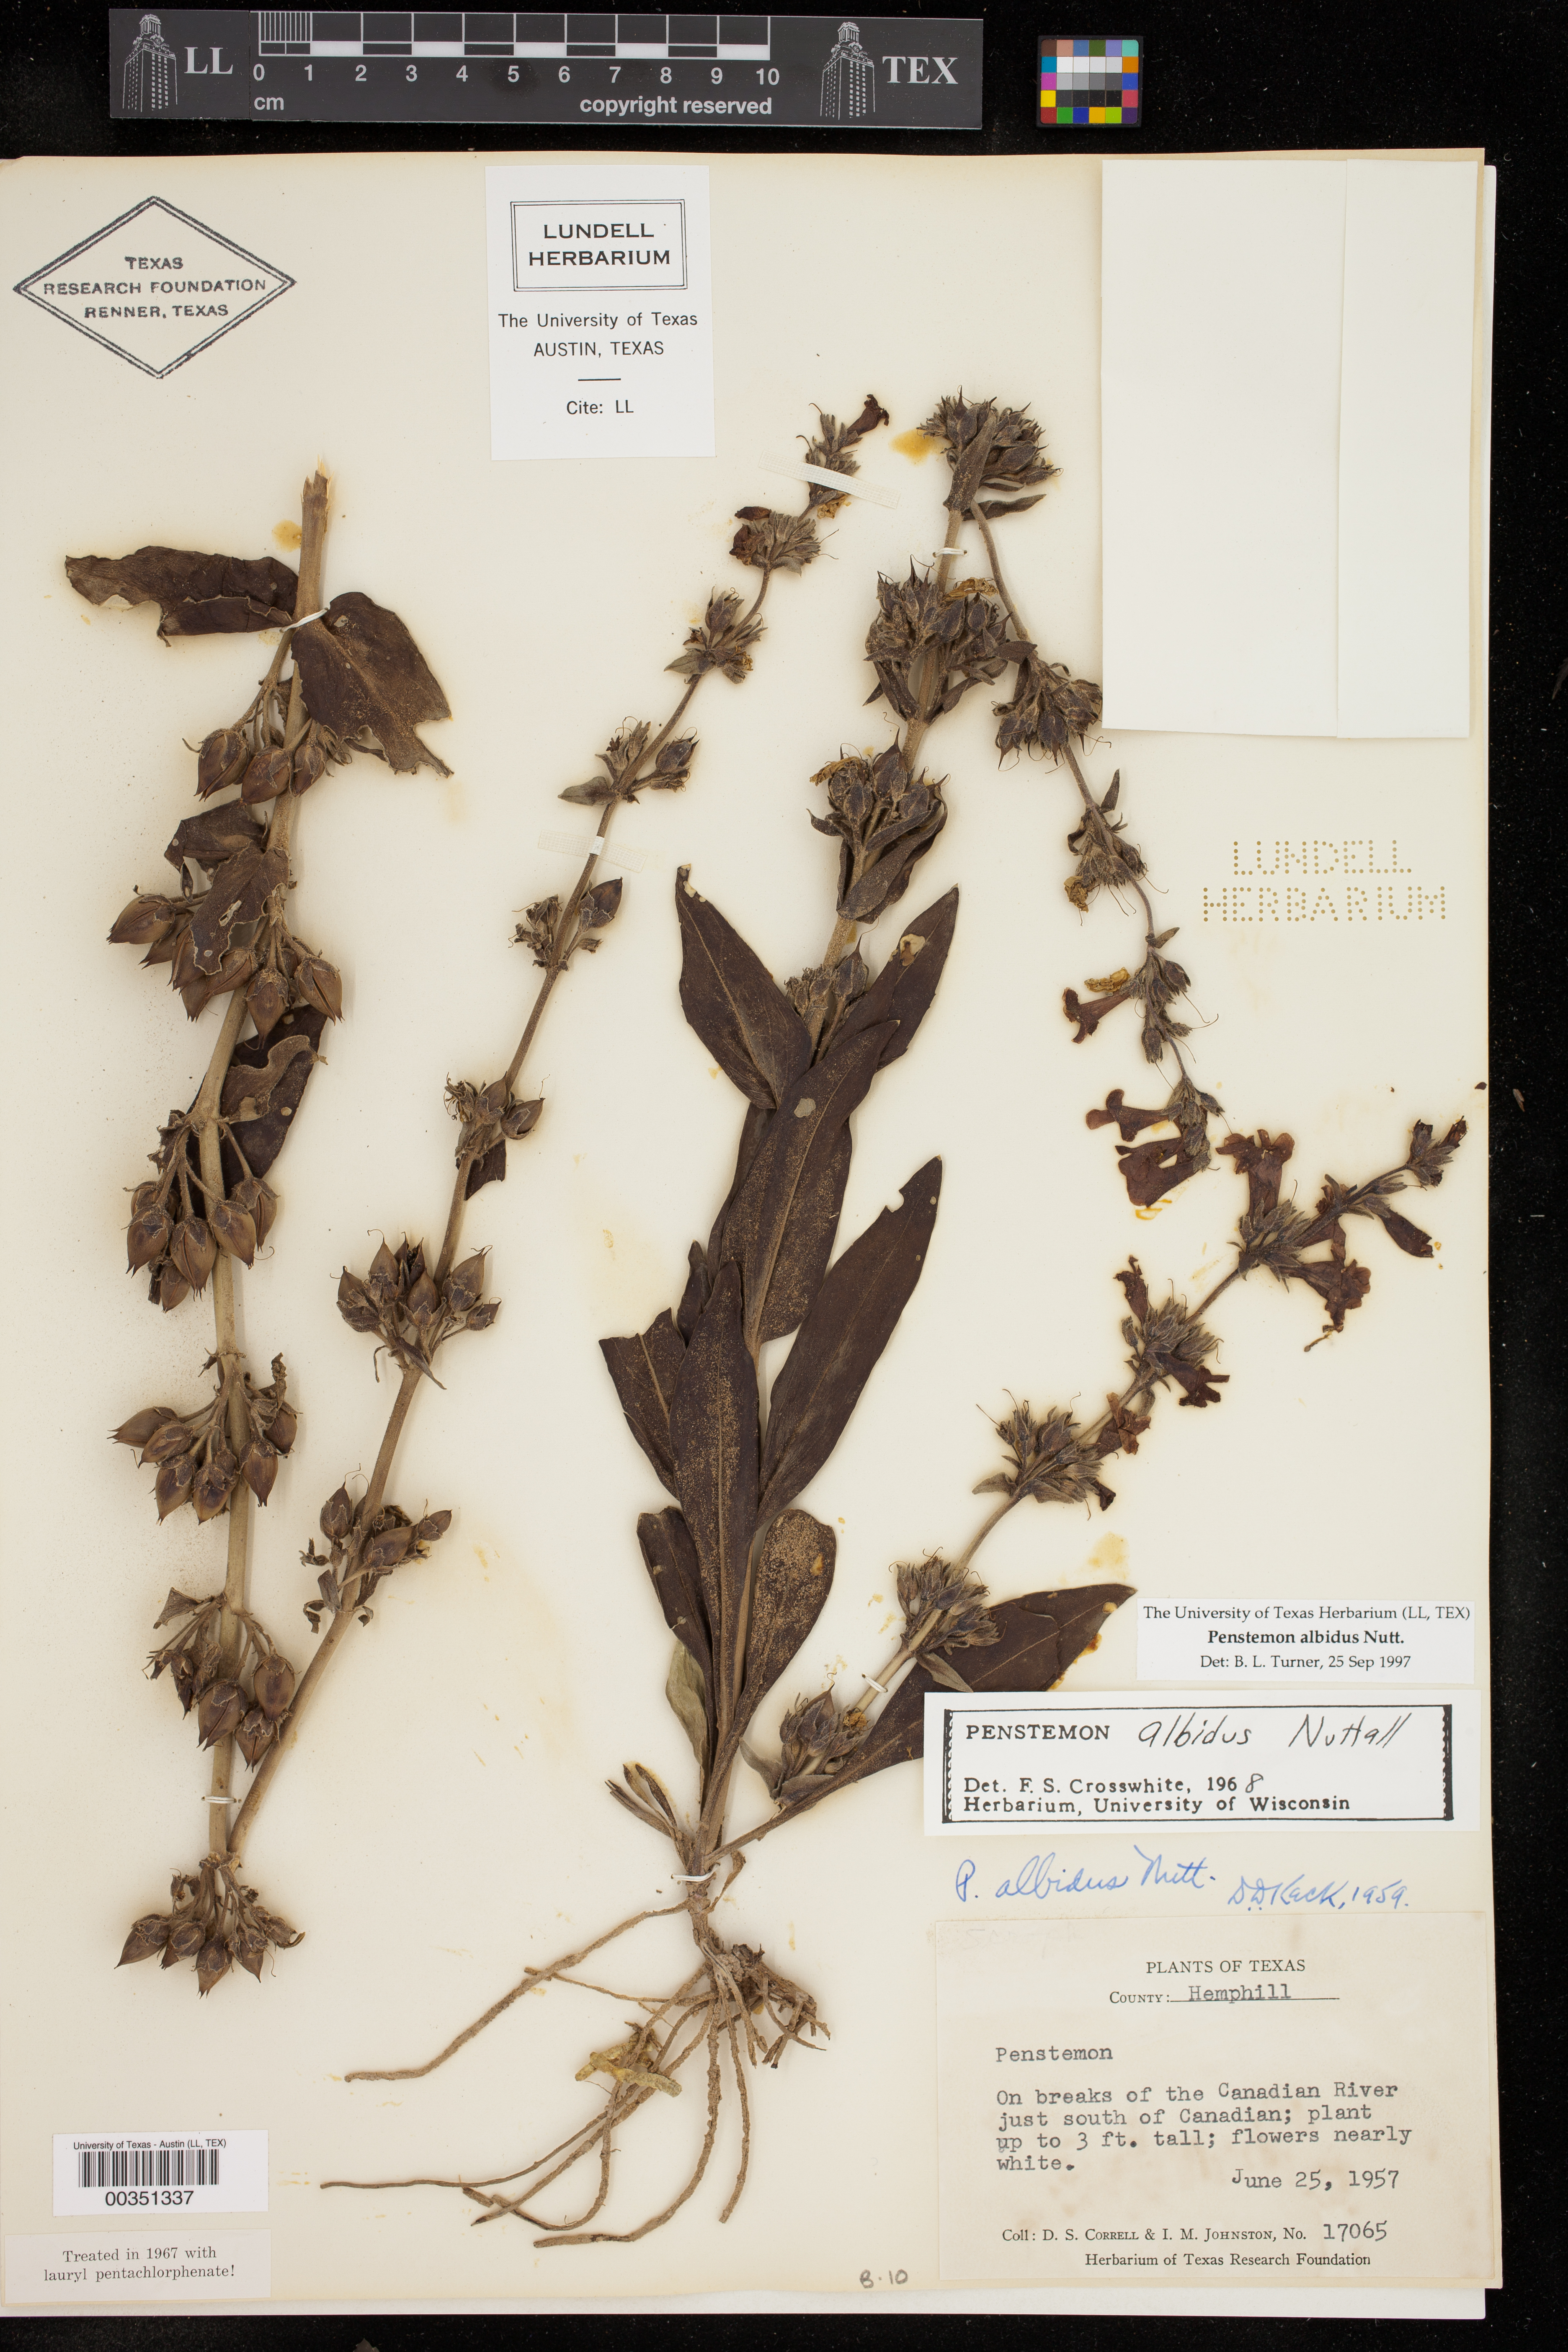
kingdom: Plantae
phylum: Tracheophyta
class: Magnoliopsida
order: Lamiales
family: Plantaginaceae
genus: Penstemon
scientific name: Penstemon albidus
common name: White beardtongue
